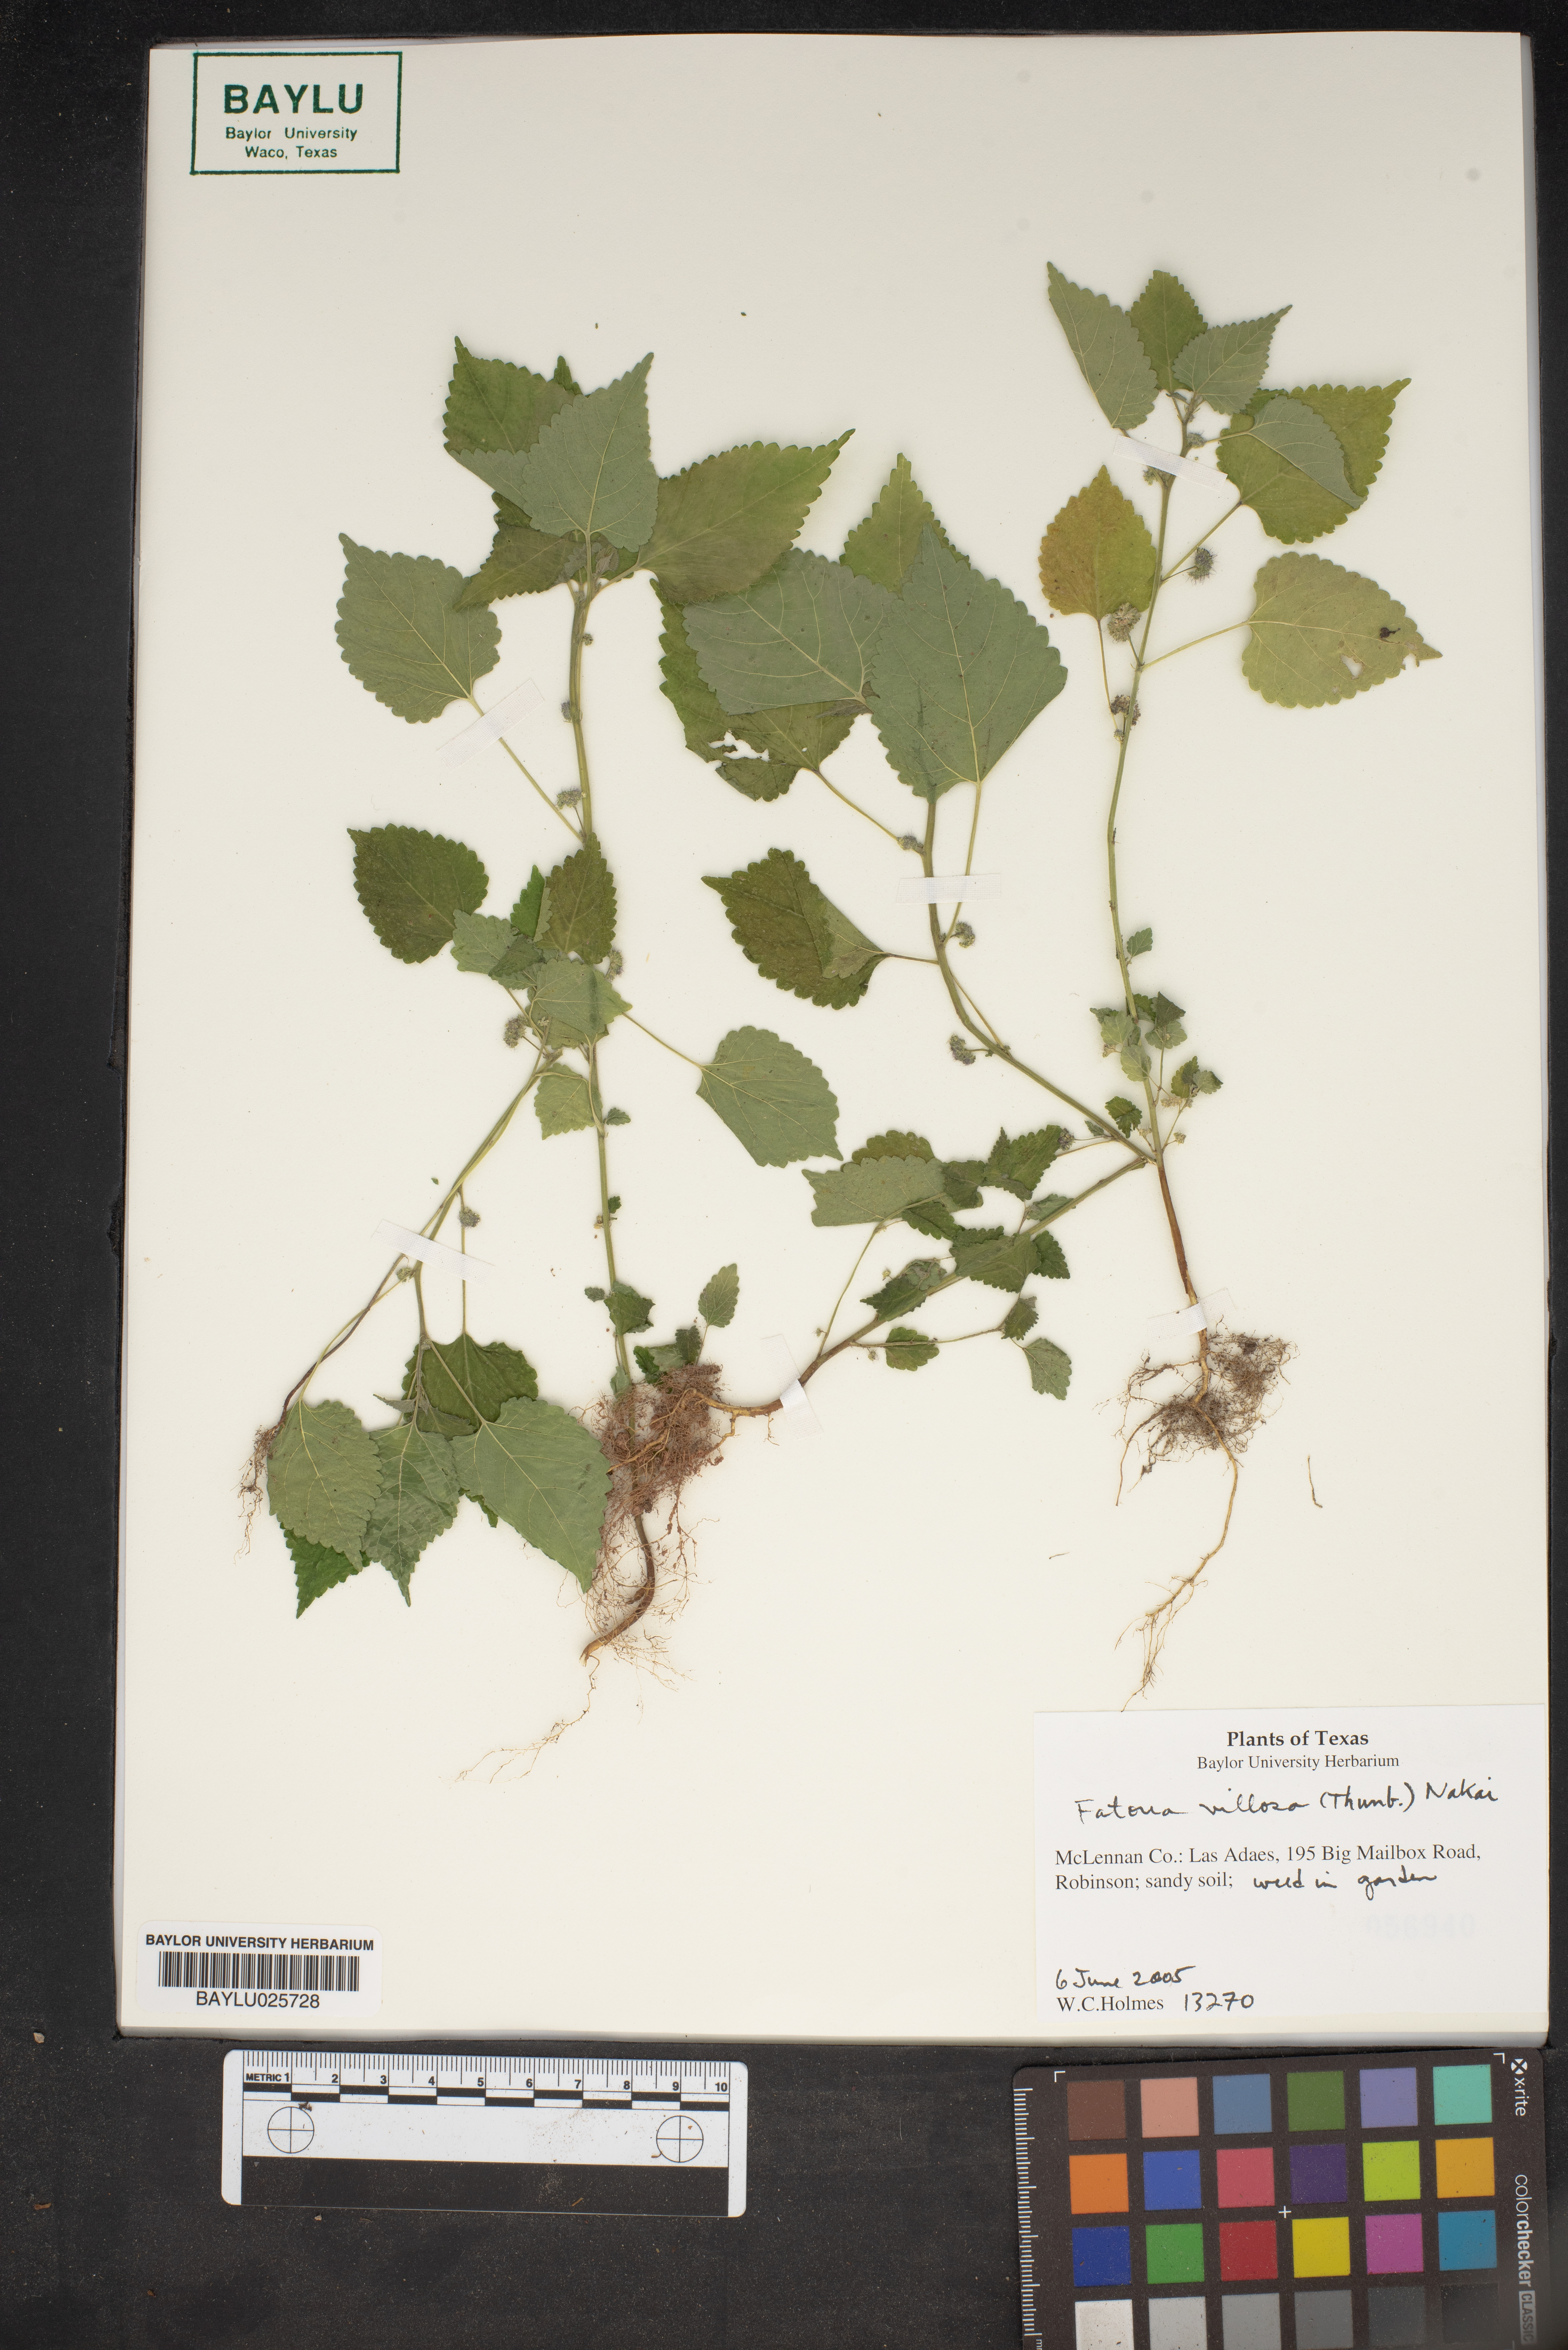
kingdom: Plantae
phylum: Tracheophyta
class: Magnoliopsida
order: Rosales
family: Moraceae
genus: Fatoua
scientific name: Fatoua villosa
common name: Hairy crabweed
